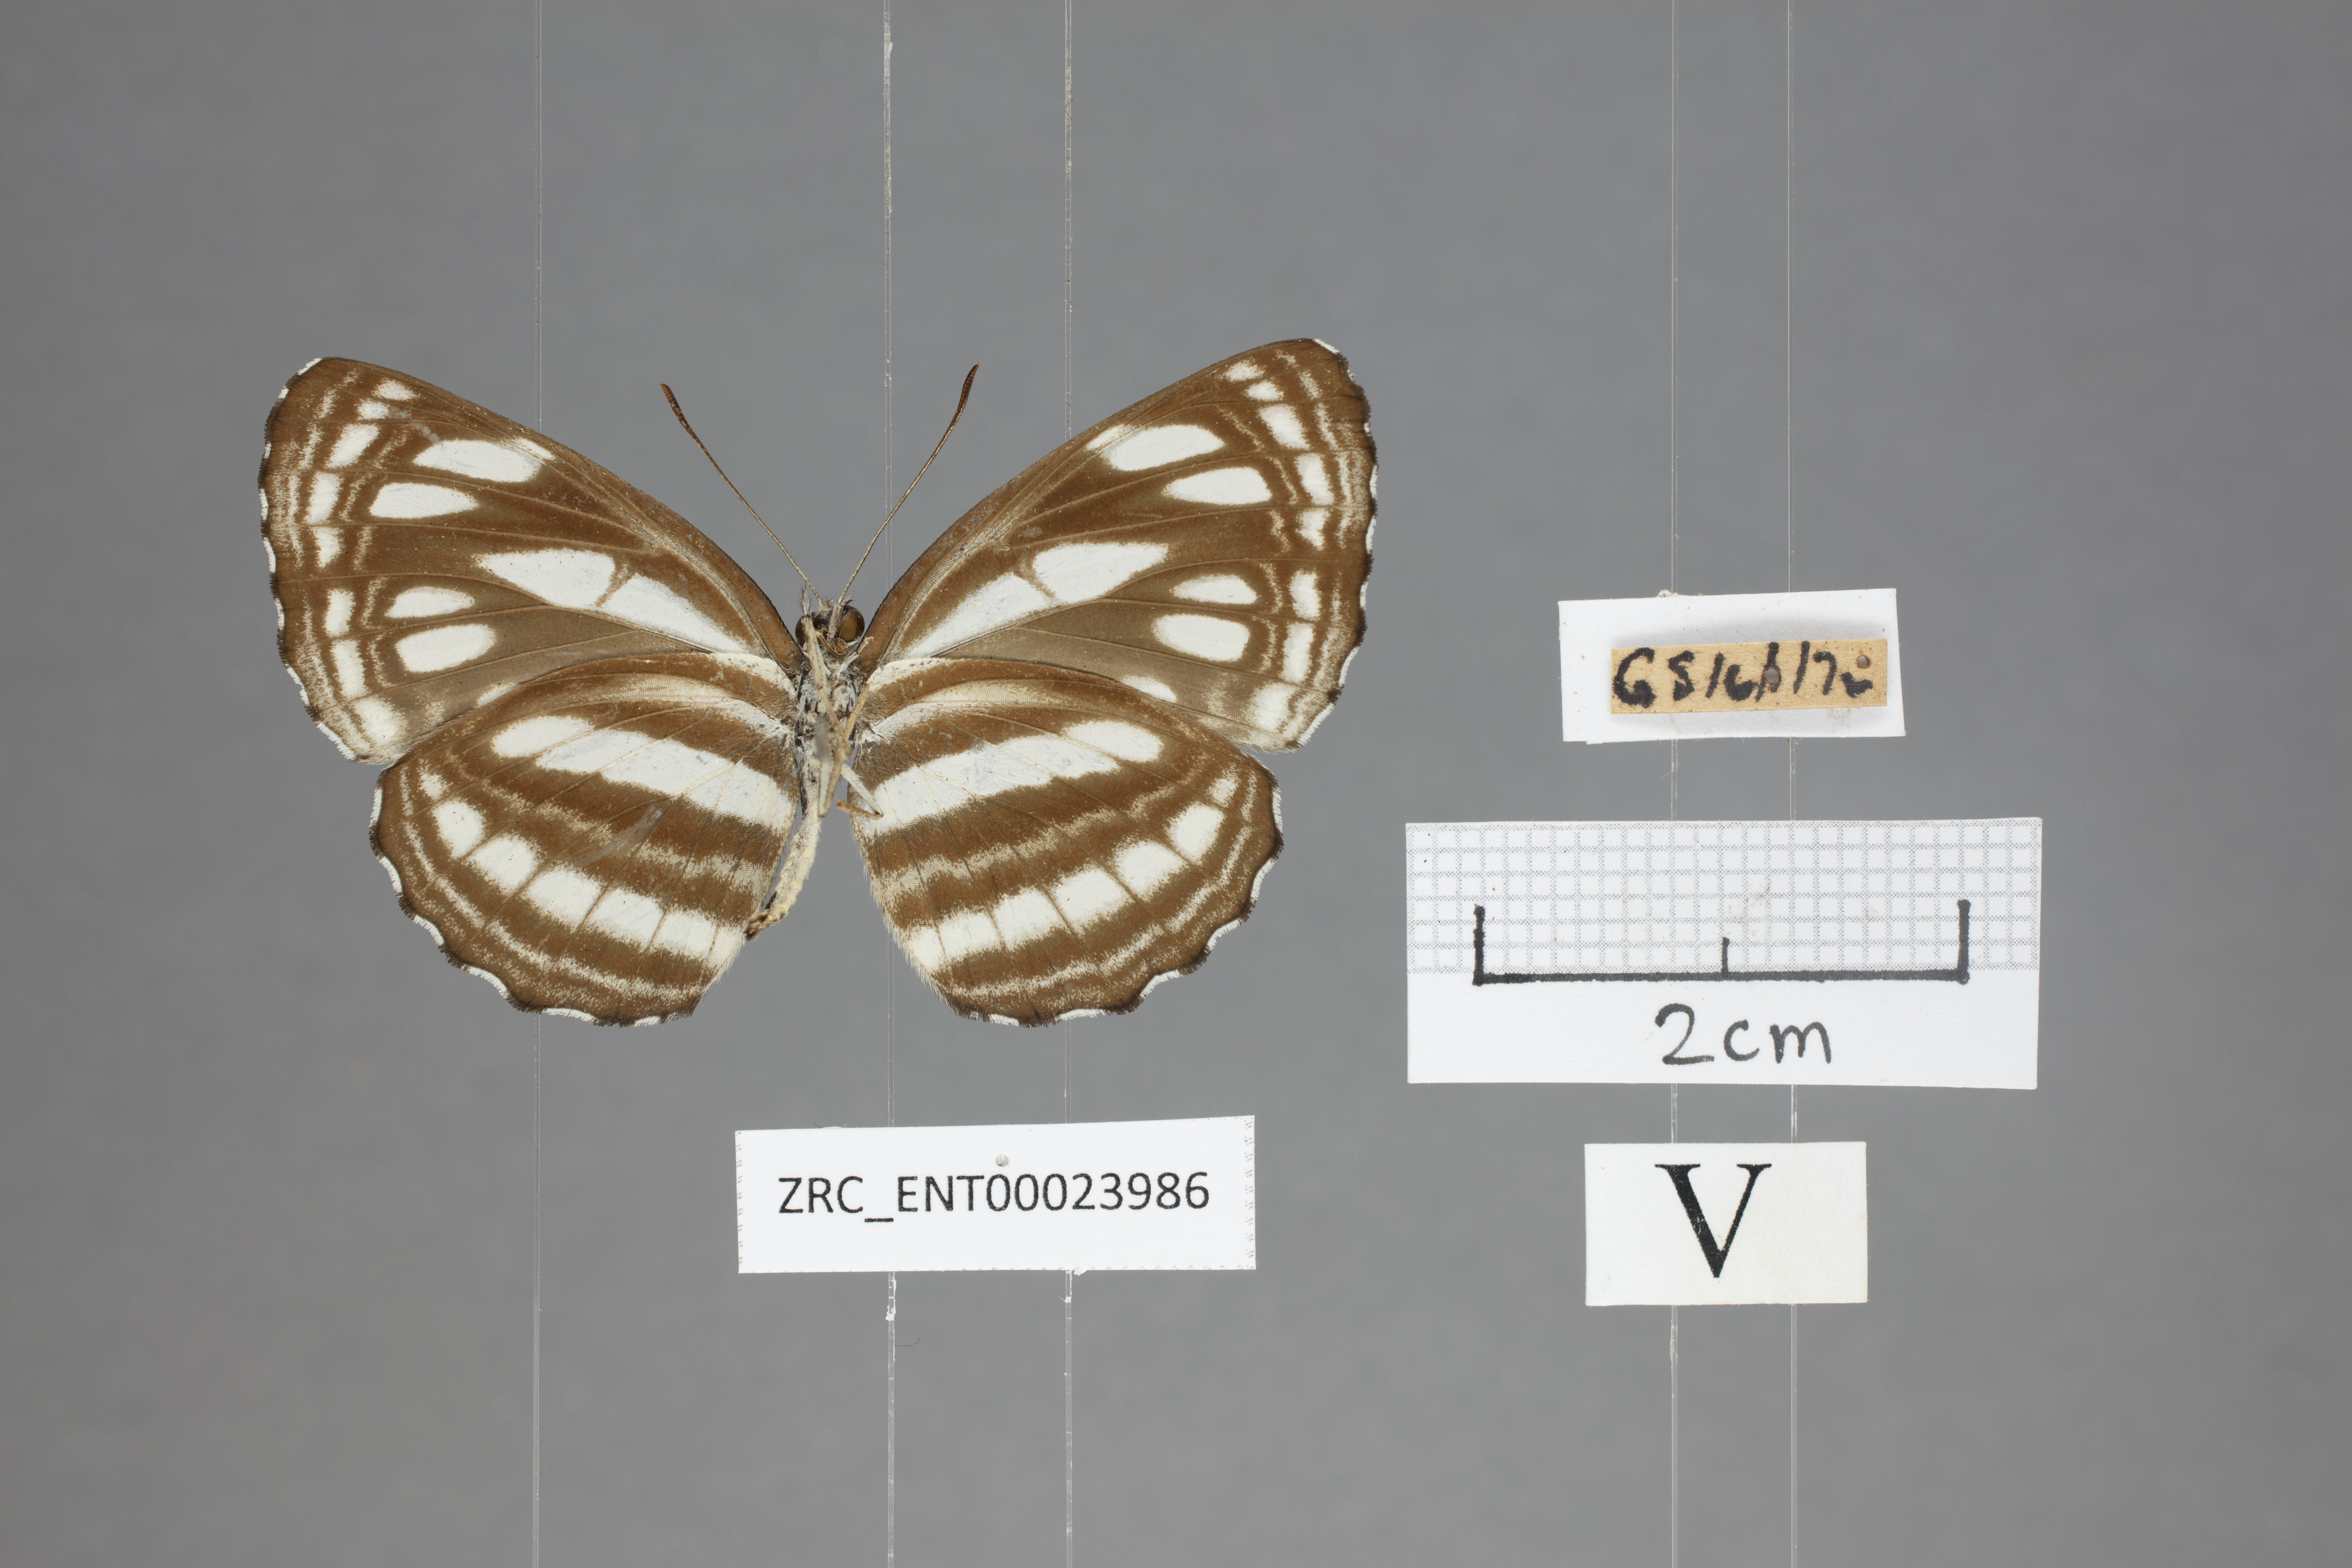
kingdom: Animalia
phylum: Arthropoda
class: Insecta
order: Lepidoptera
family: Nymphalidae
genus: Neptis
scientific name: Neptis duryodana
